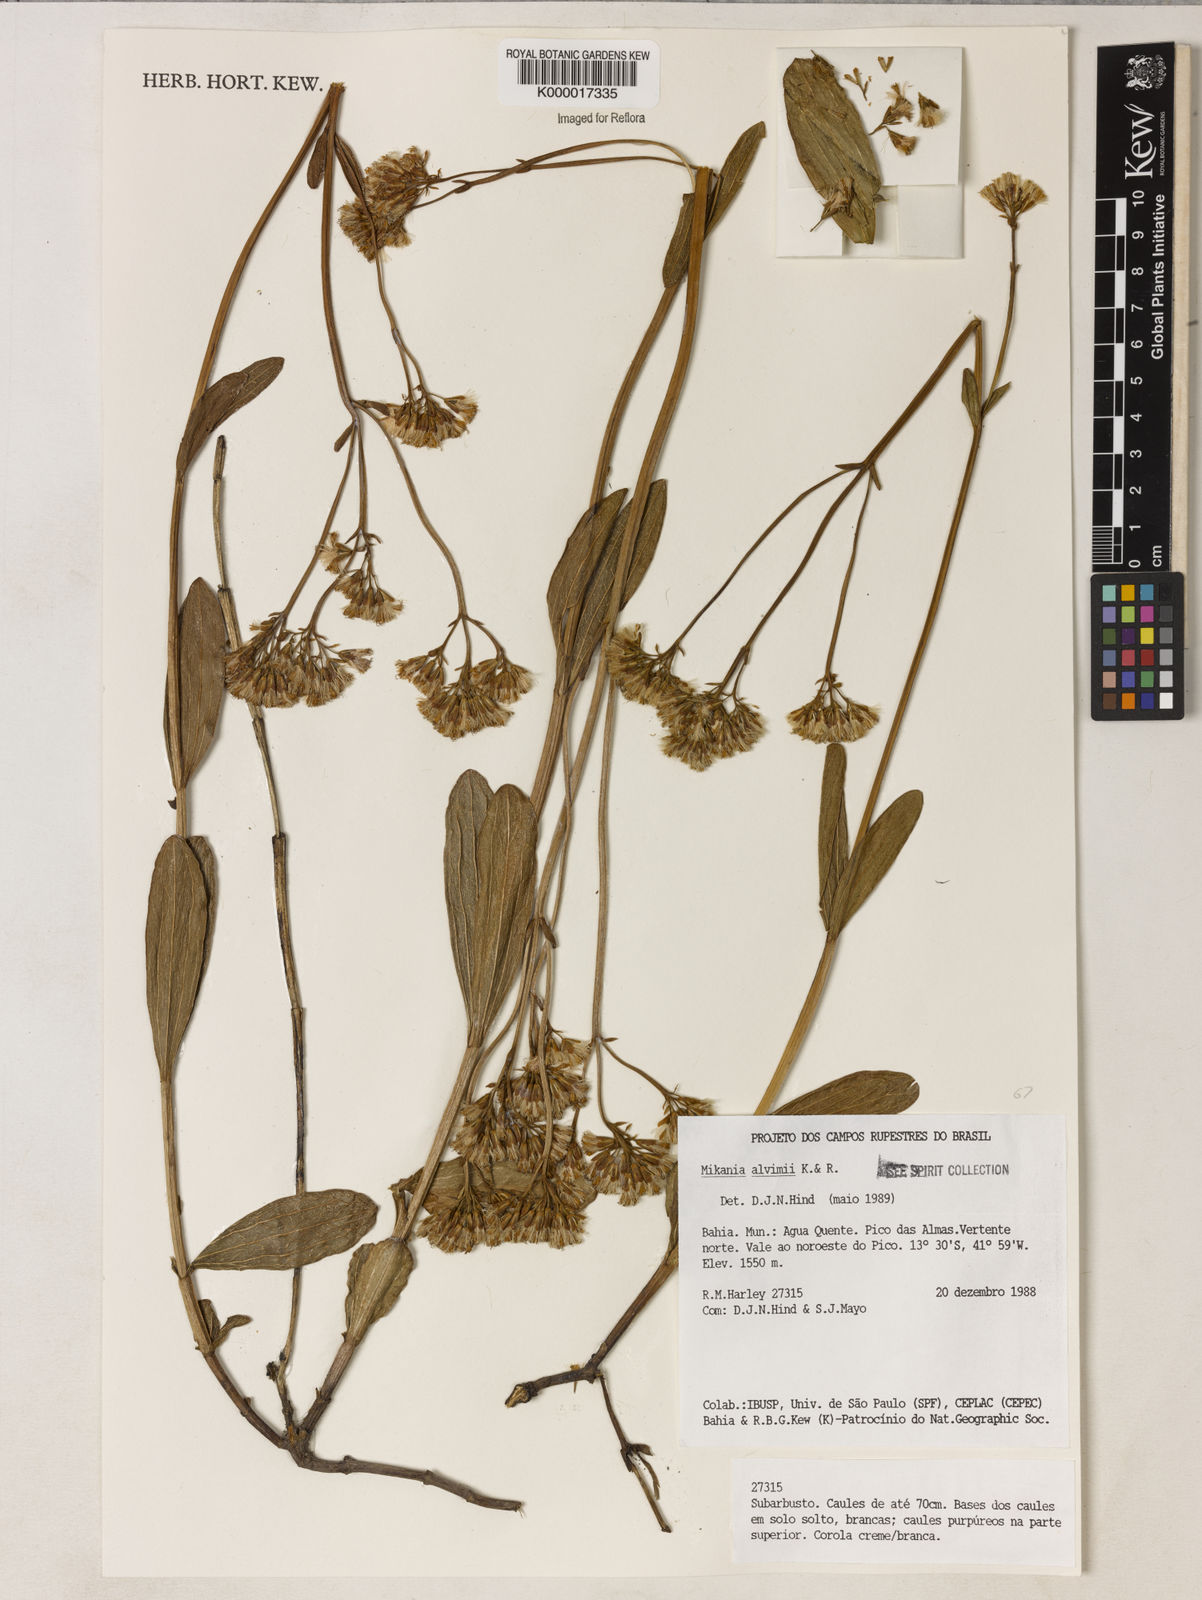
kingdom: Plantae
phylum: Tracheophyta
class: Magnoliopsida
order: Asterales
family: Asteraceae
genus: Mikania
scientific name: Mikania alvimii
